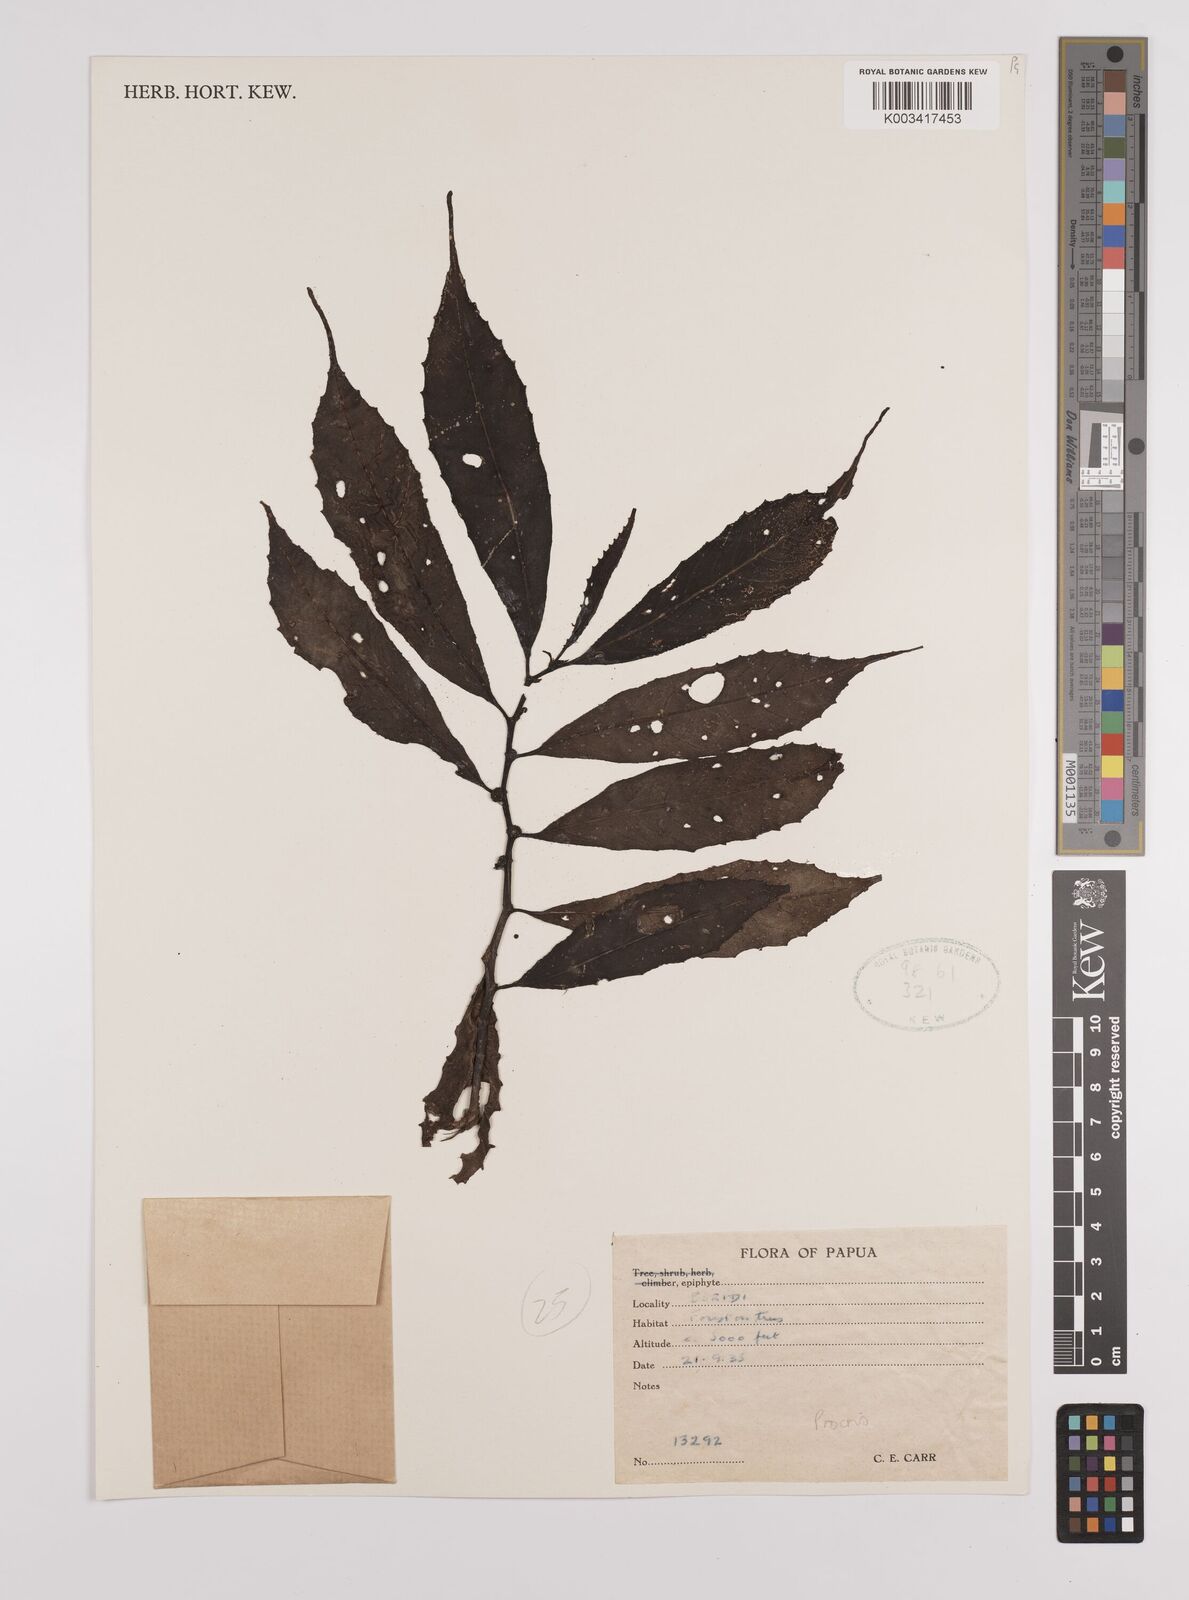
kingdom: Plantae
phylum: Tracheophyta
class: Magnoliopsida
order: Rosales
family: Urticaceae
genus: Procris
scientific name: Procris
